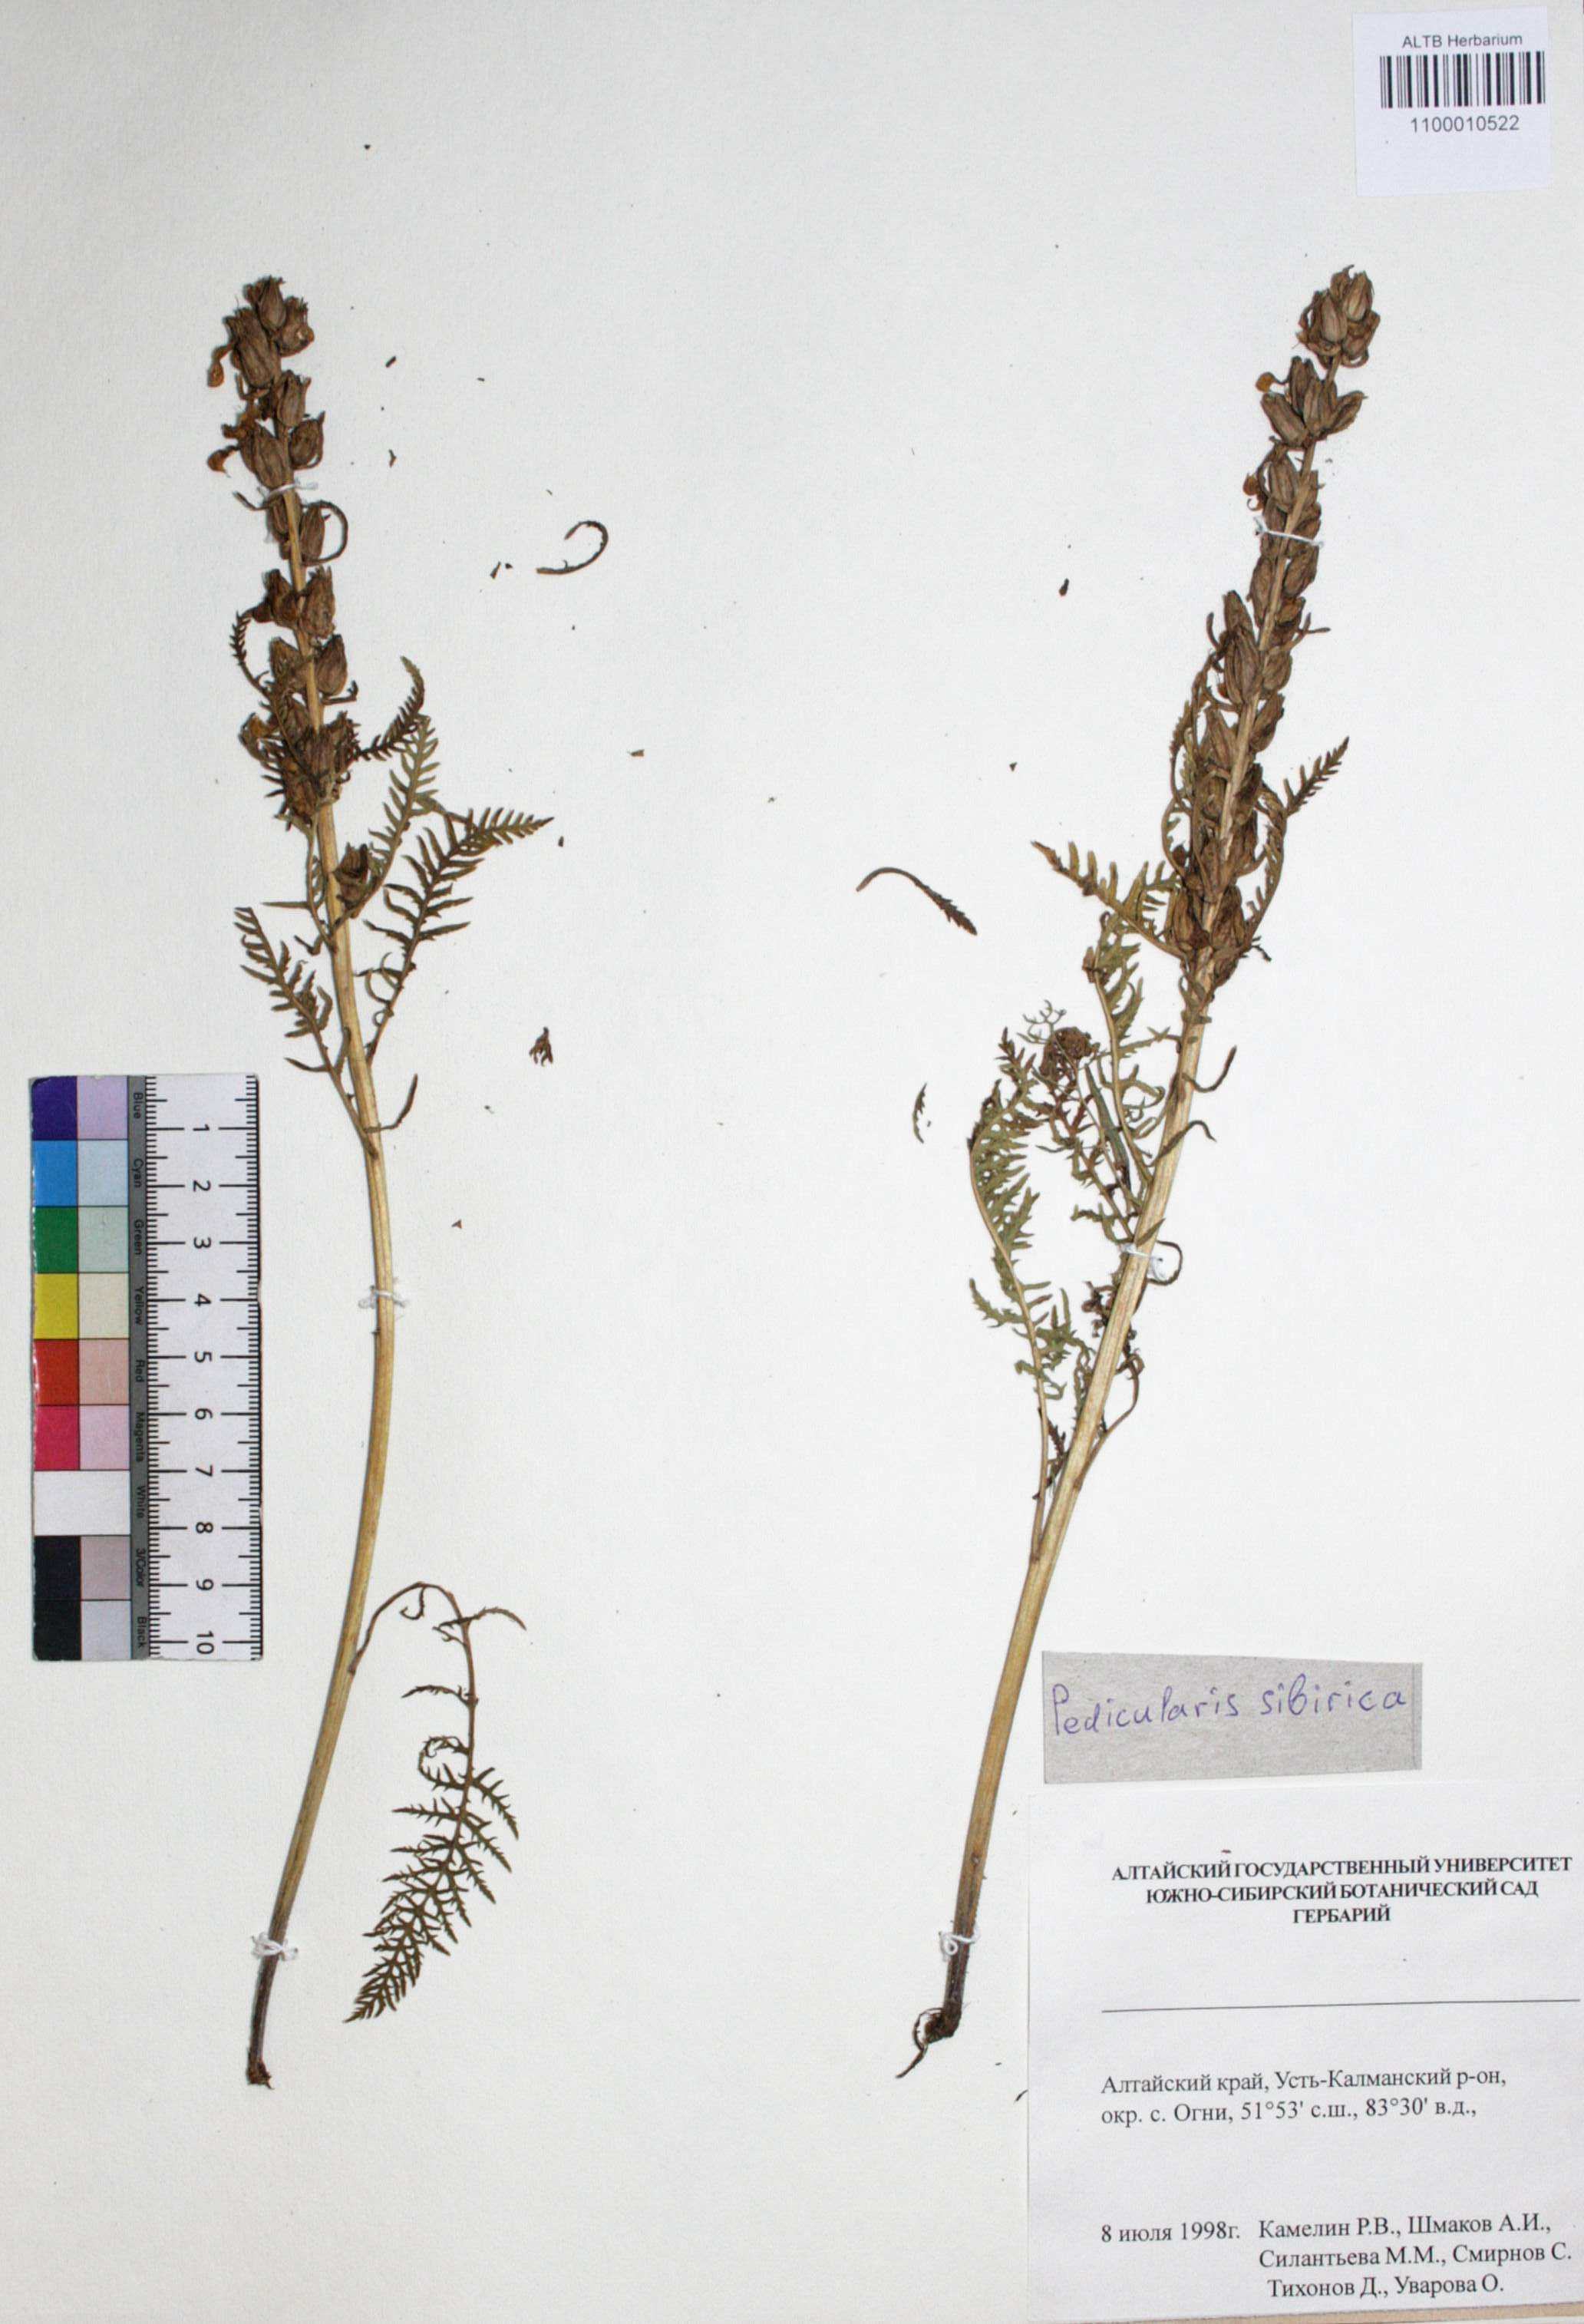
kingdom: Plantae
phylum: Tracheophyta
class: Magnoliopsida
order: Lamiales
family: Orobanchaceae
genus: Pedicularis
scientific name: Pedicularis sibirica
